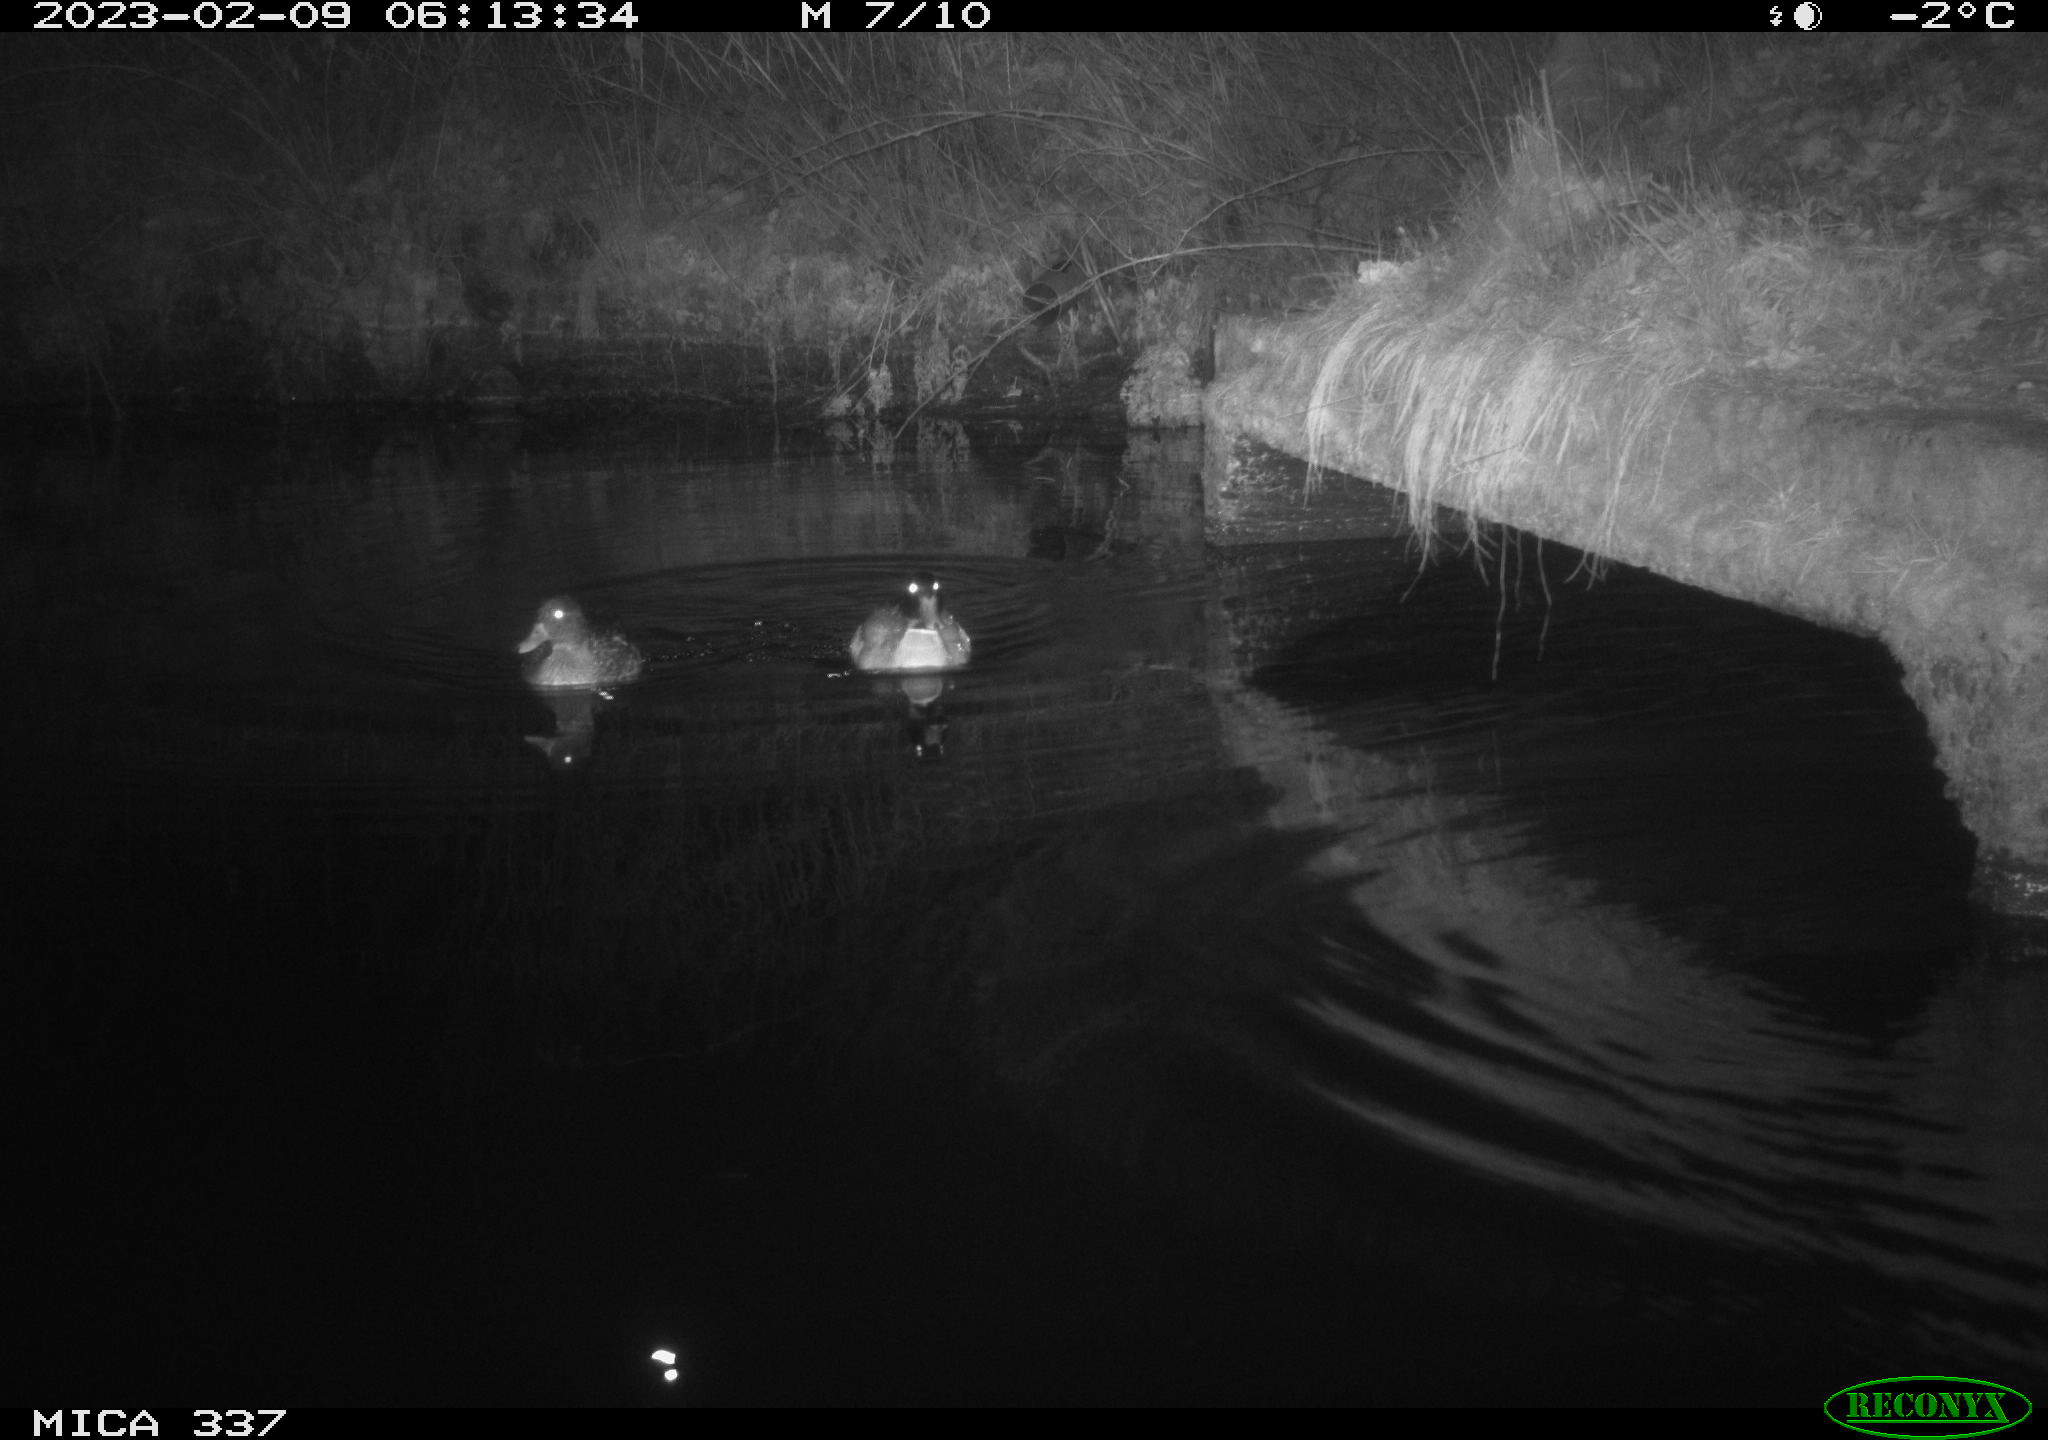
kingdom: Animalia
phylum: Chordata
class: Aves
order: Anseriformes
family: Anatidae
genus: Anas
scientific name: Anas
